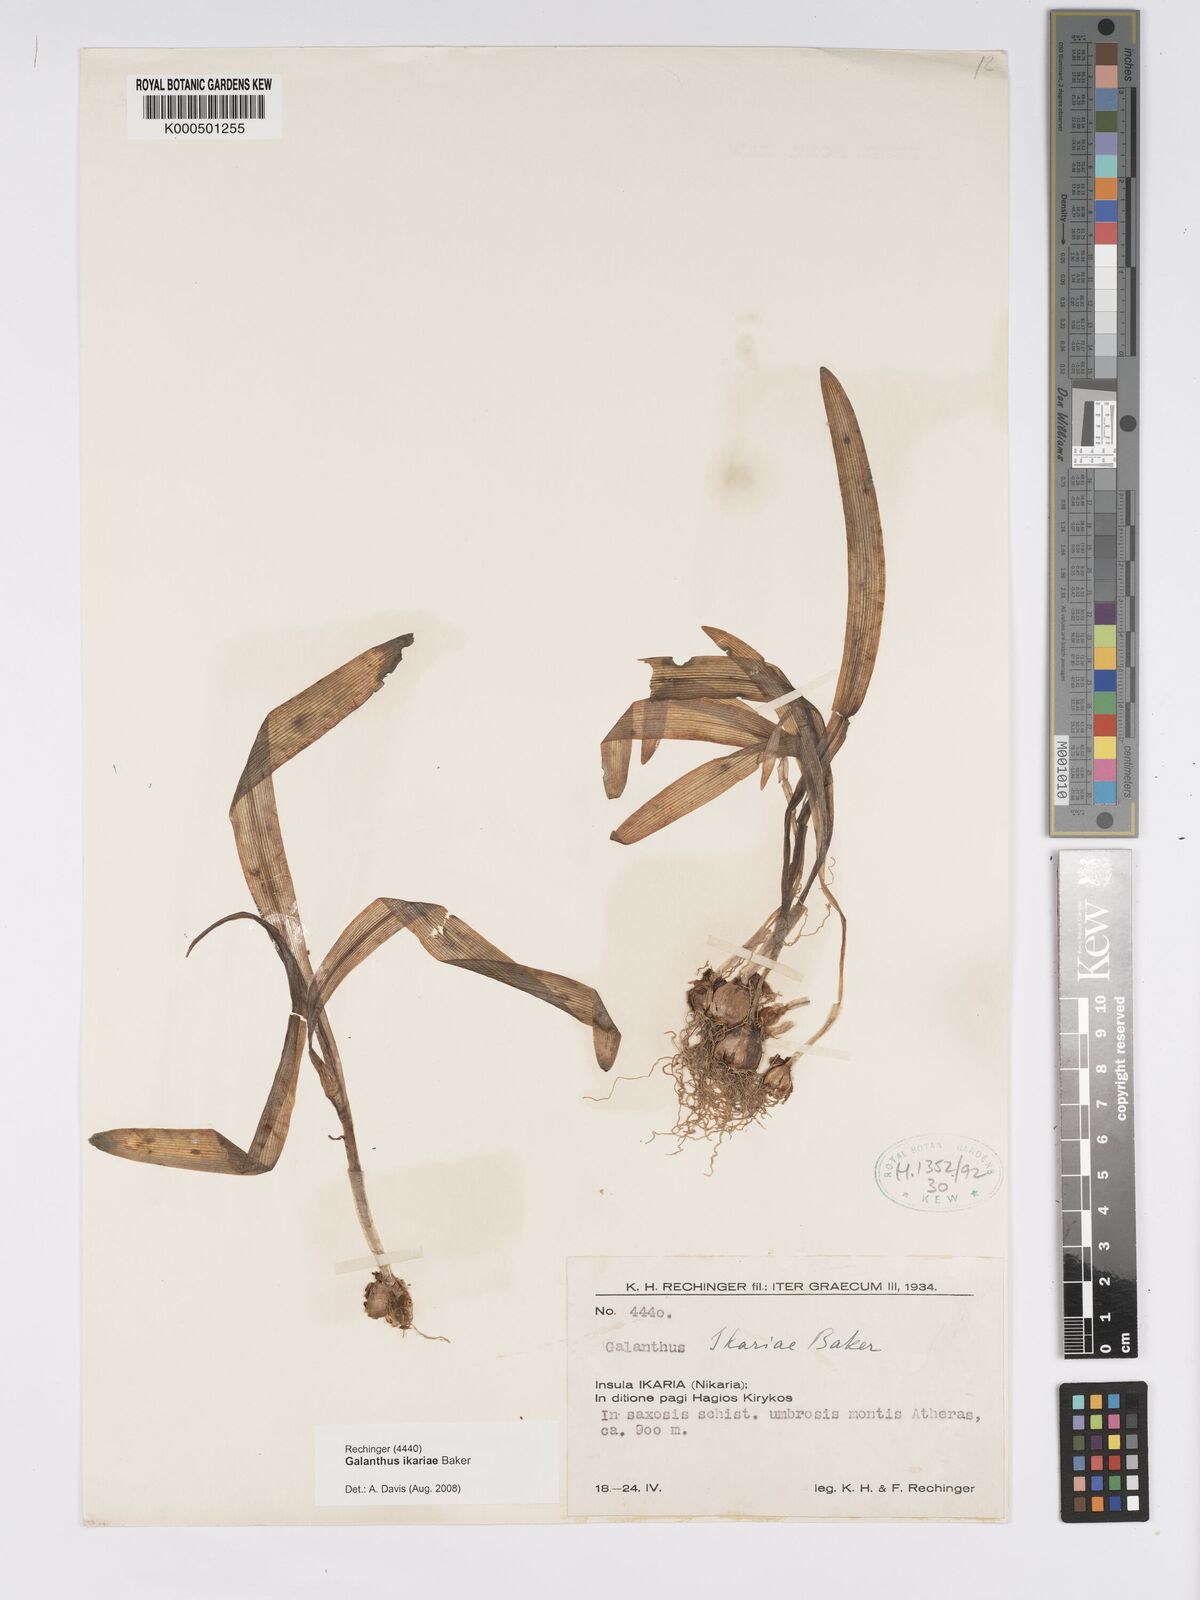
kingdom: Plantae
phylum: Tracheophyta
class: Liliopsida
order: Asparagales
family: Amaryllidaceae
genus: Galanthus
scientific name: Galanthus ikariae
